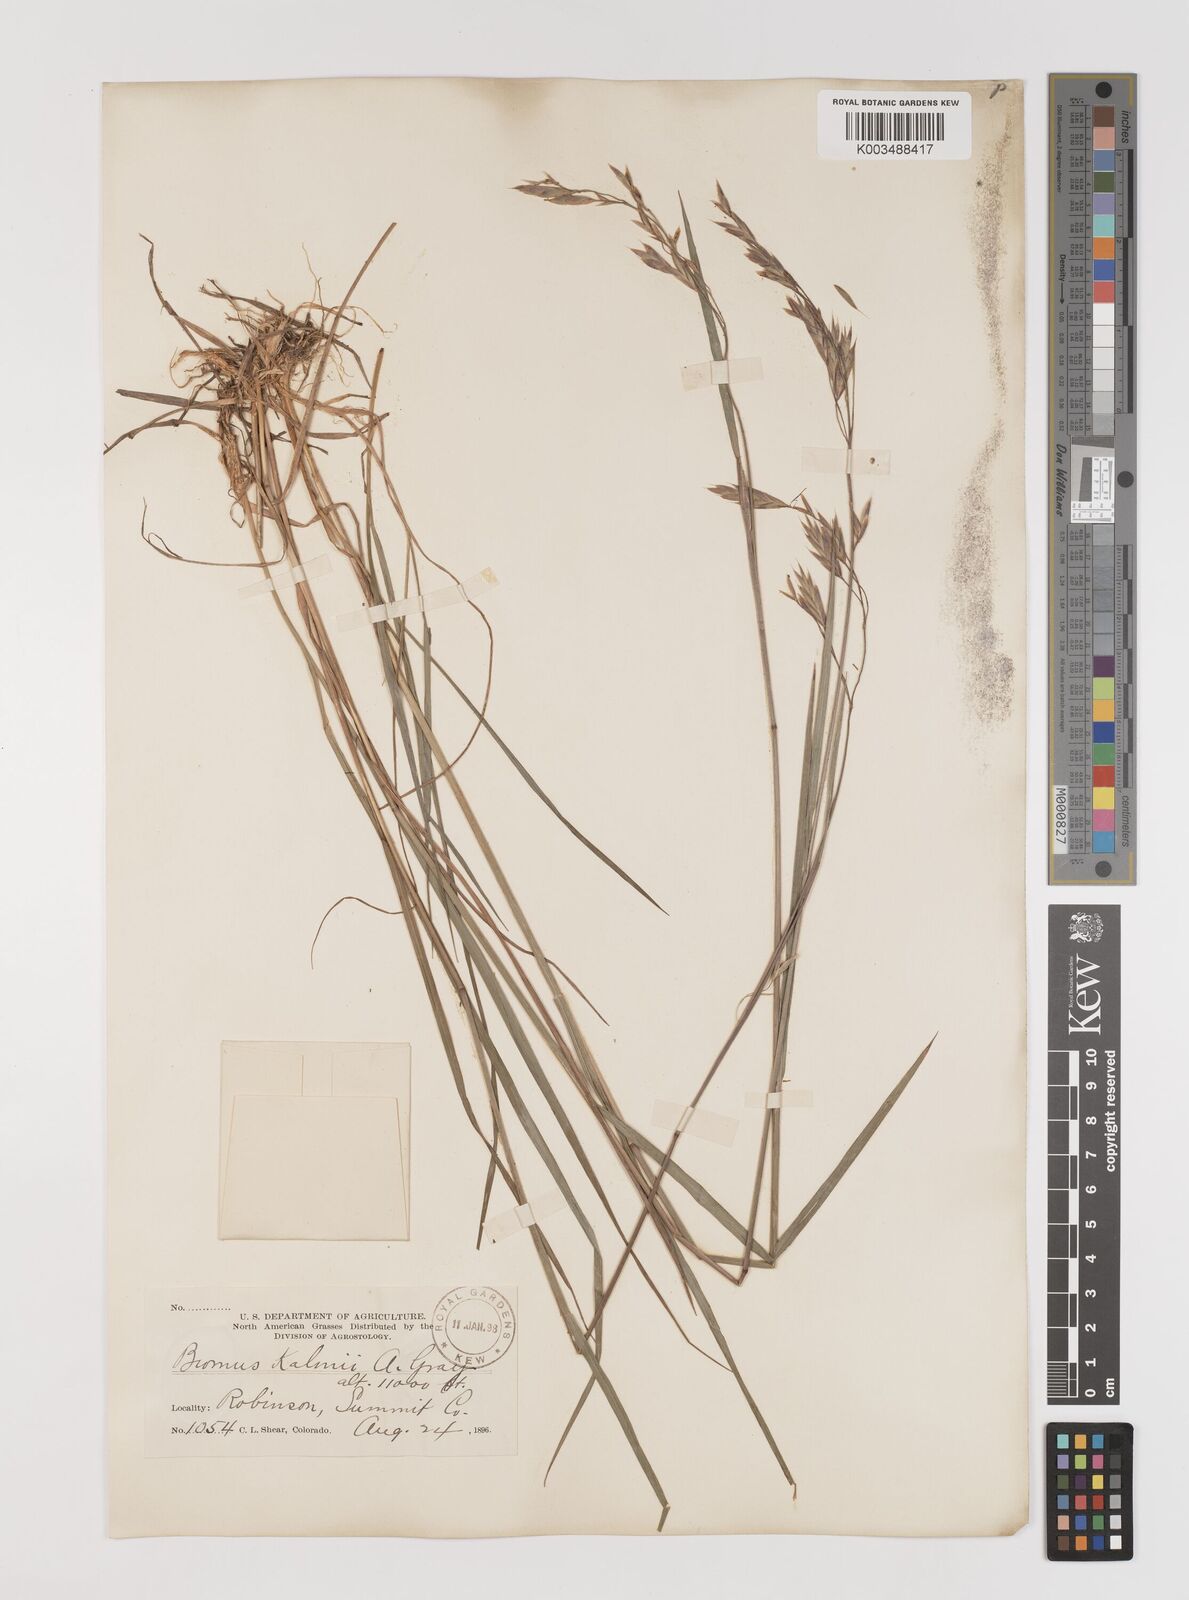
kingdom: Plantae
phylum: Tracheophyta
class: Liliopsida
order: Poales
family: Poaceae
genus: Bromus
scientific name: Bromus ciliatus
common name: Fringe brome
